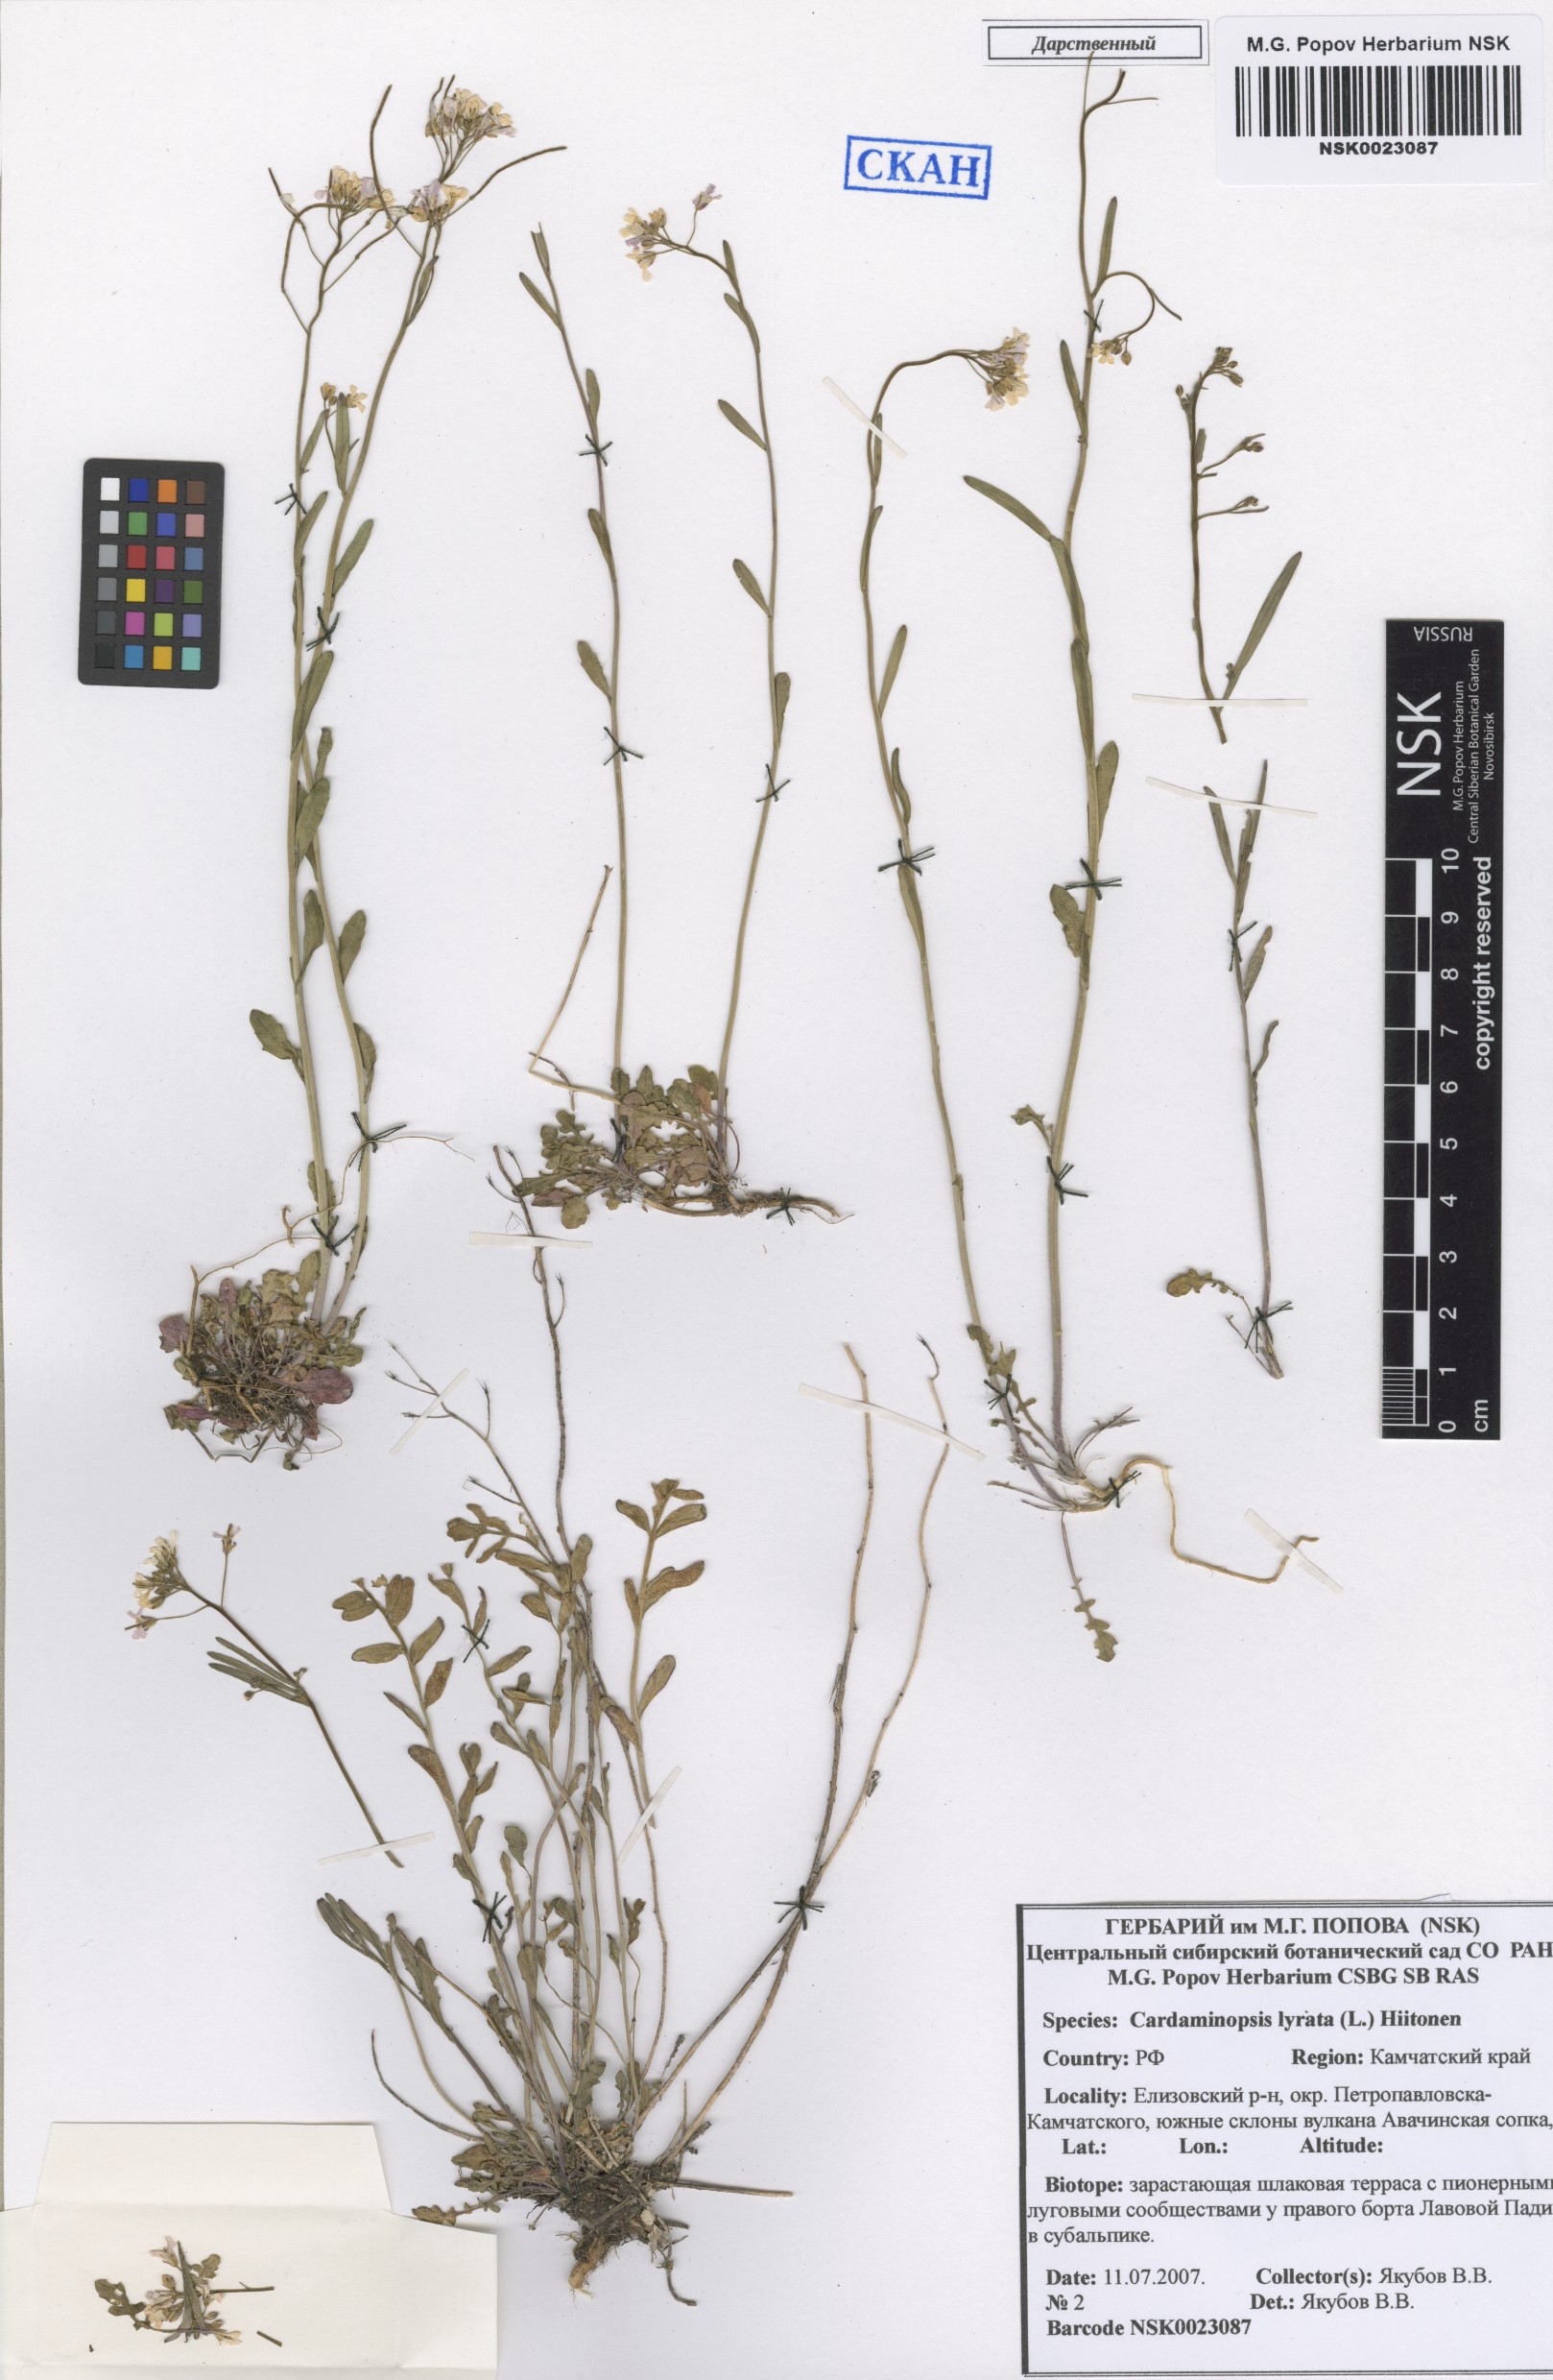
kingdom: Plantae
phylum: Tracheophyta
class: Magnoliopsida
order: Brassicales
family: Brassicaceae
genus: Arabidopsis
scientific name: Arabidopsis lyrata
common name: Lyrate rockcress
